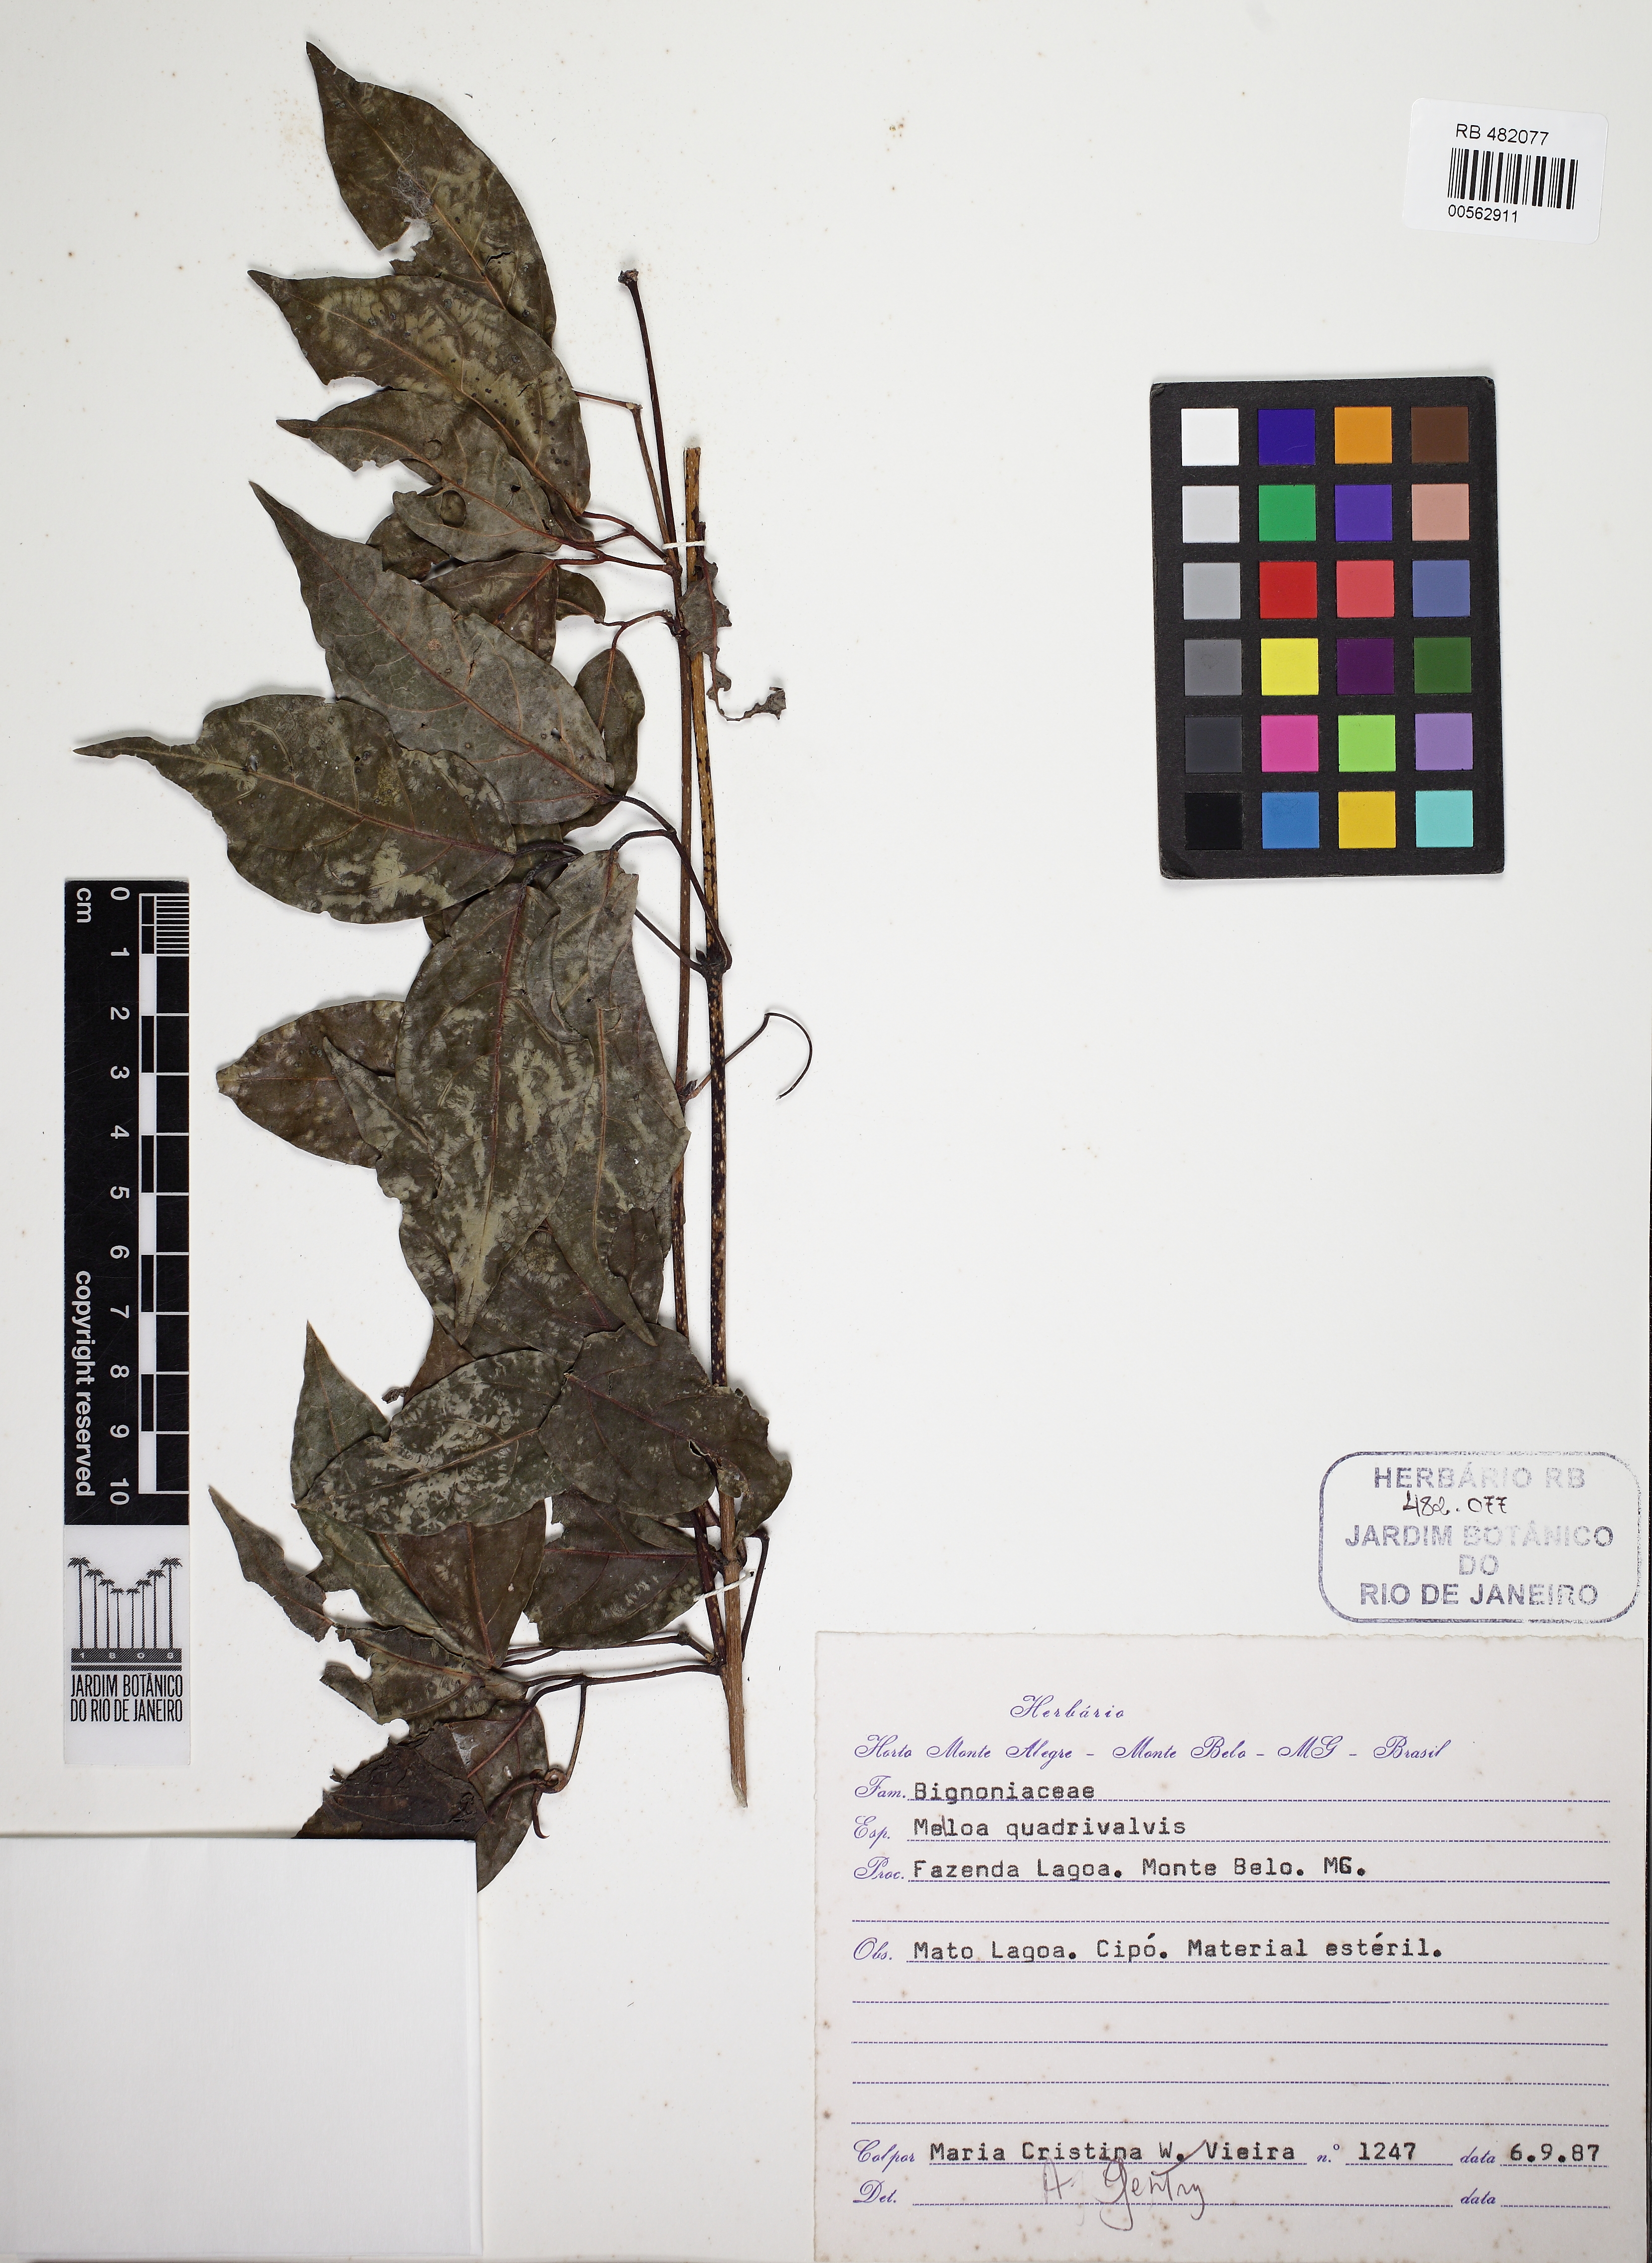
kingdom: Plantae
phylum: Tracheophyta
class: Magnoliopsida
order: Lamiales
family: Bignoniaceae
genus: Dolichandra
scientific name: Dolichandra quadrivalvis
